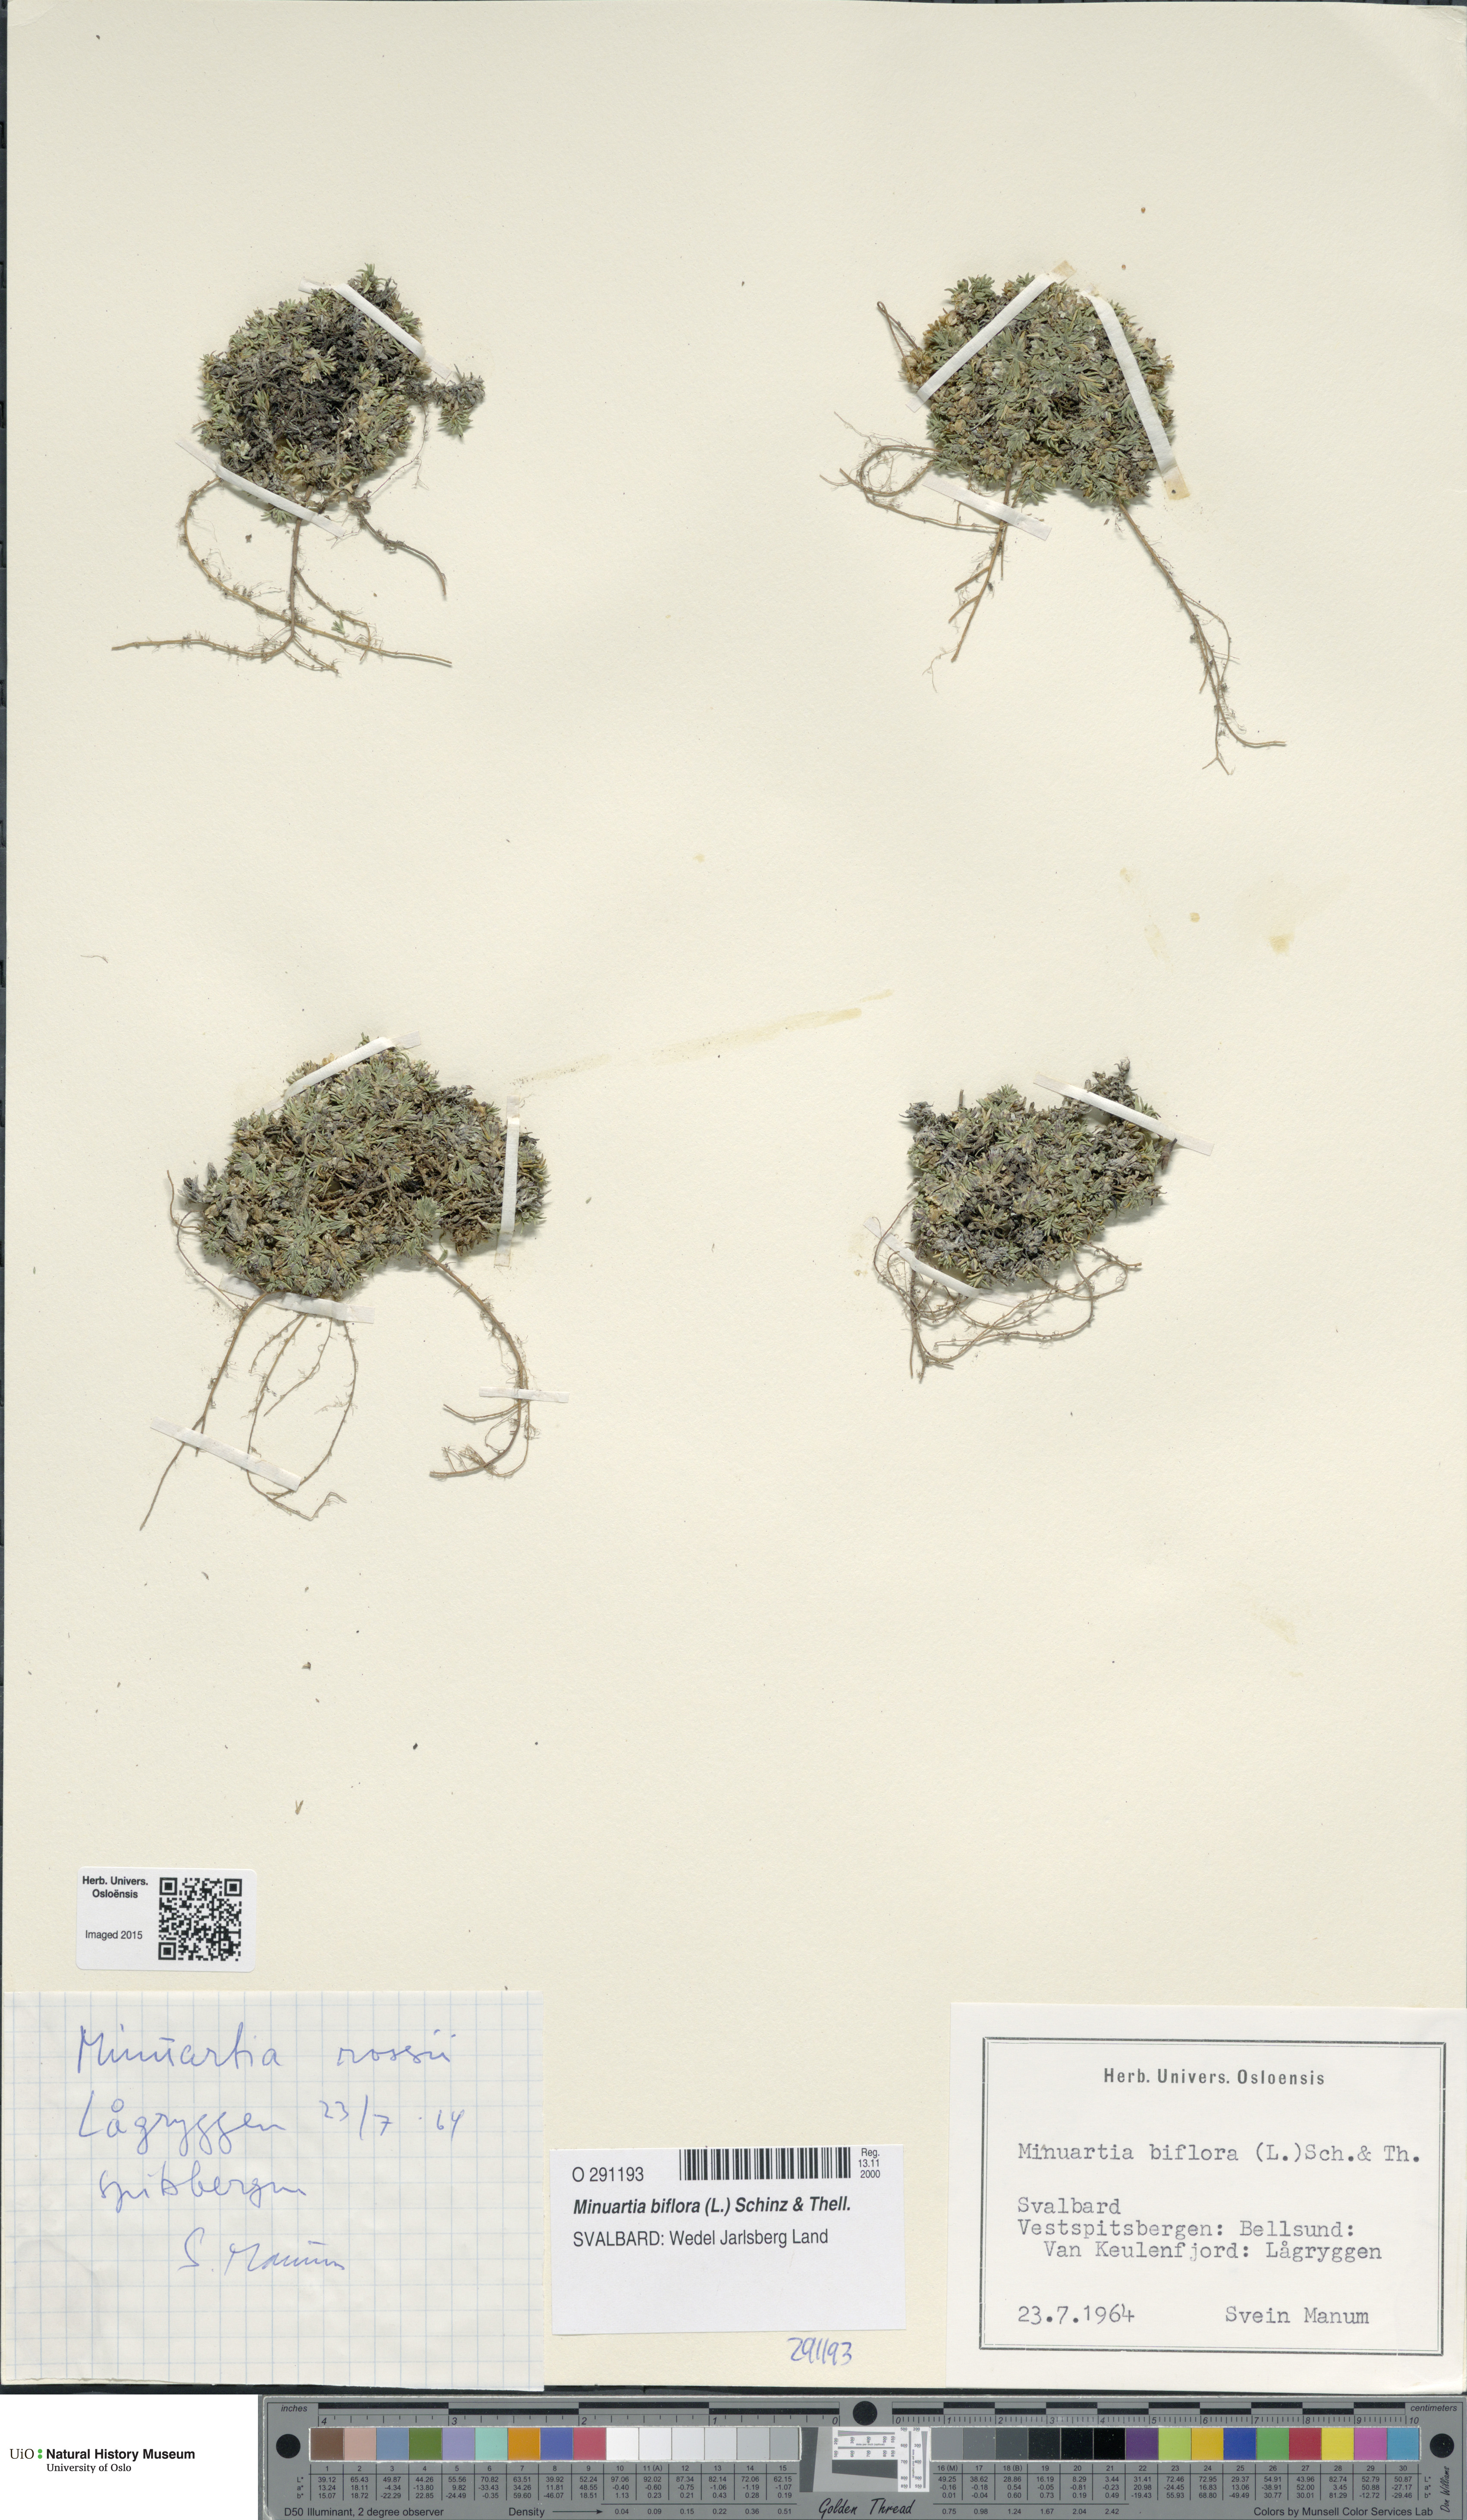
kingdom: Plantae
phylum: Tracheophyta
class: Magnoliopsida
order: Caryophyllales
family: Caryophyllaceae
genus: Cherleria
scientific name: Cherleria biflora
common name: Mountain sandwort
